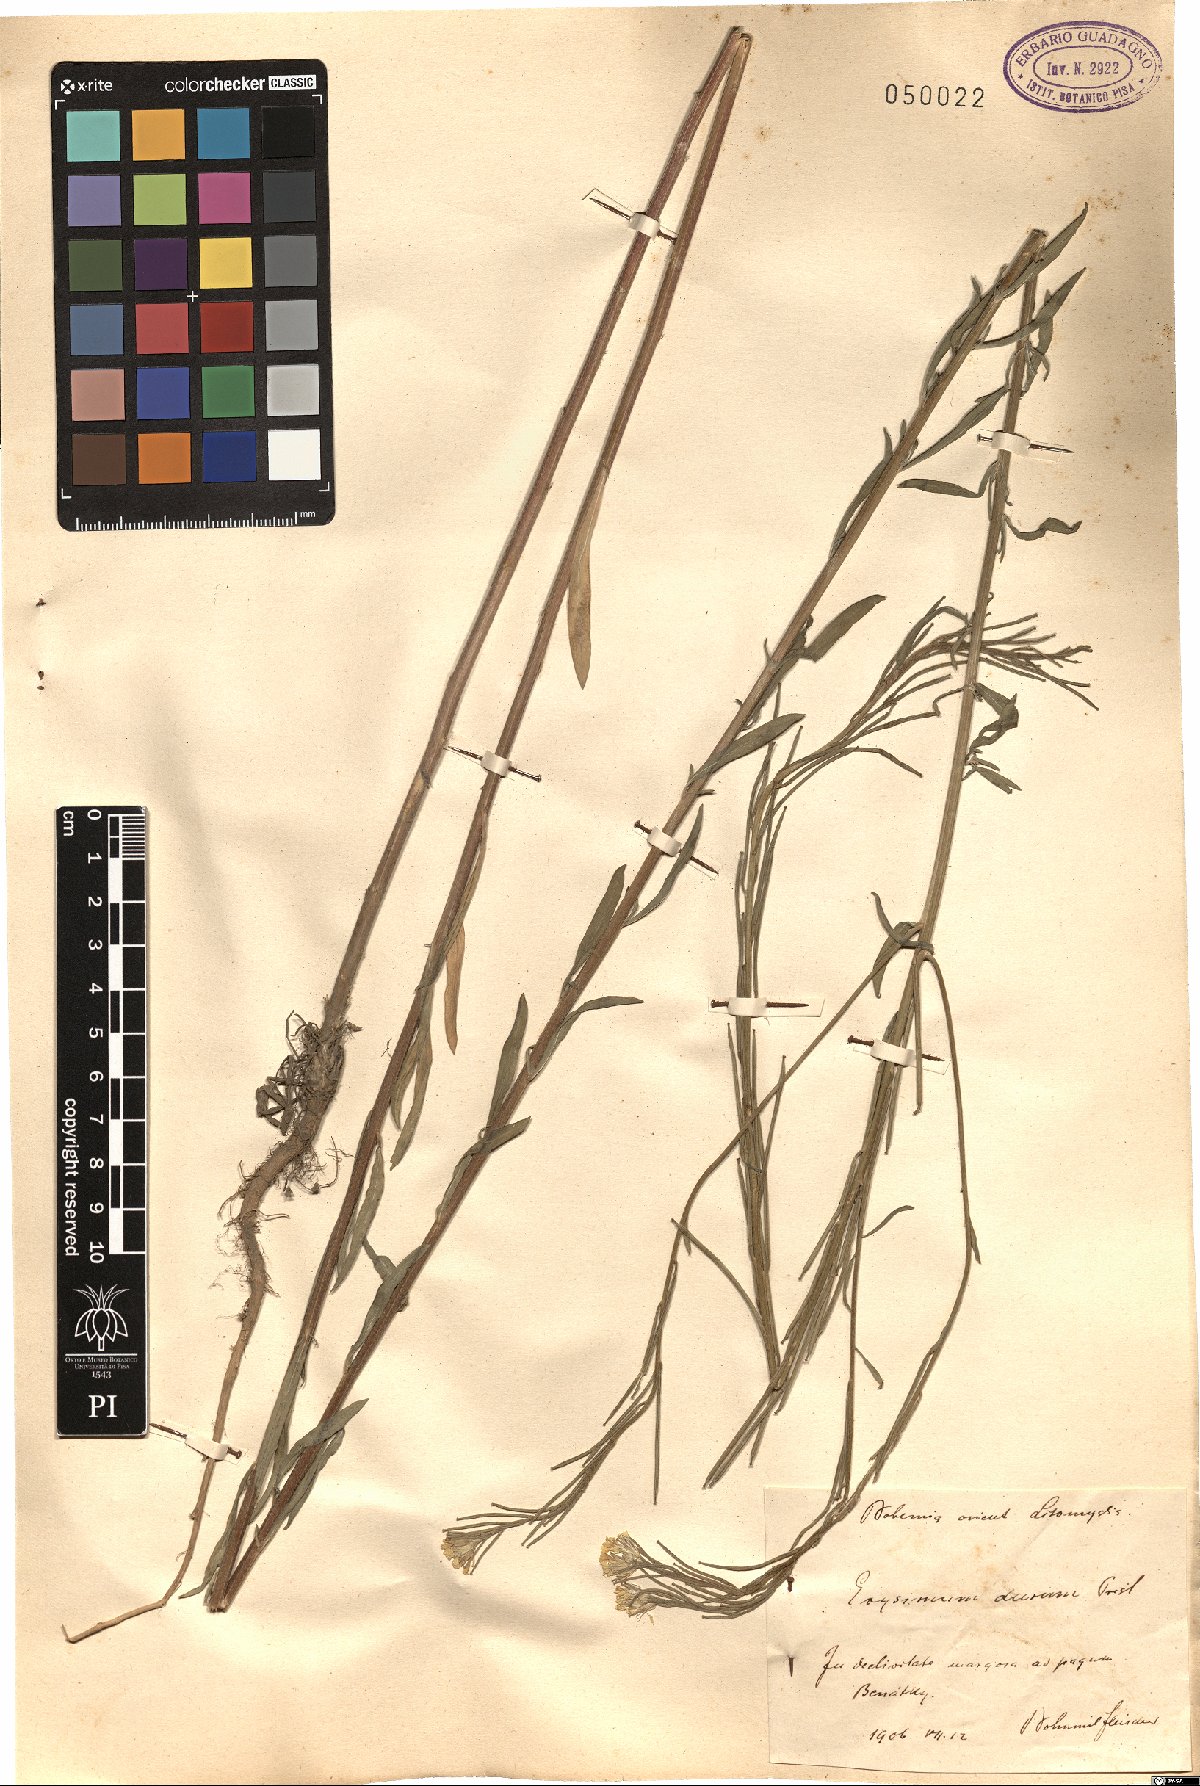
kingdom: Plantae
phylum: Tracheophyta
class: Magnoliopsida
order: Brassicales
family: Brassicaceae
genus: Erysimum
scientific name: Erysimum marschallianum
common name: Hard wallflower
